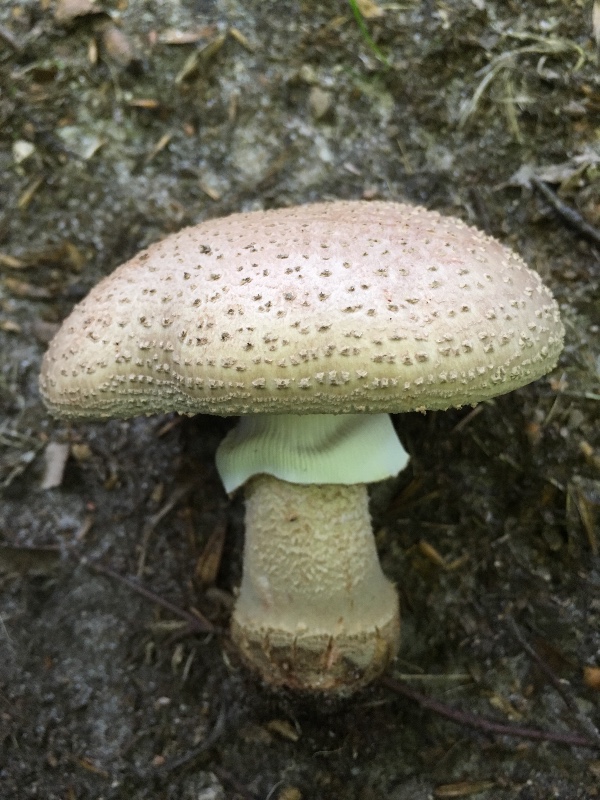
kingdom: Fungi
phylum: Basidiomycota
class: Agaricomycetes
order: Agaricales
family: Amanitaceae
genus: Amanita
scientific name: Amanita rubescens
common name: rødmende fluesvamp
